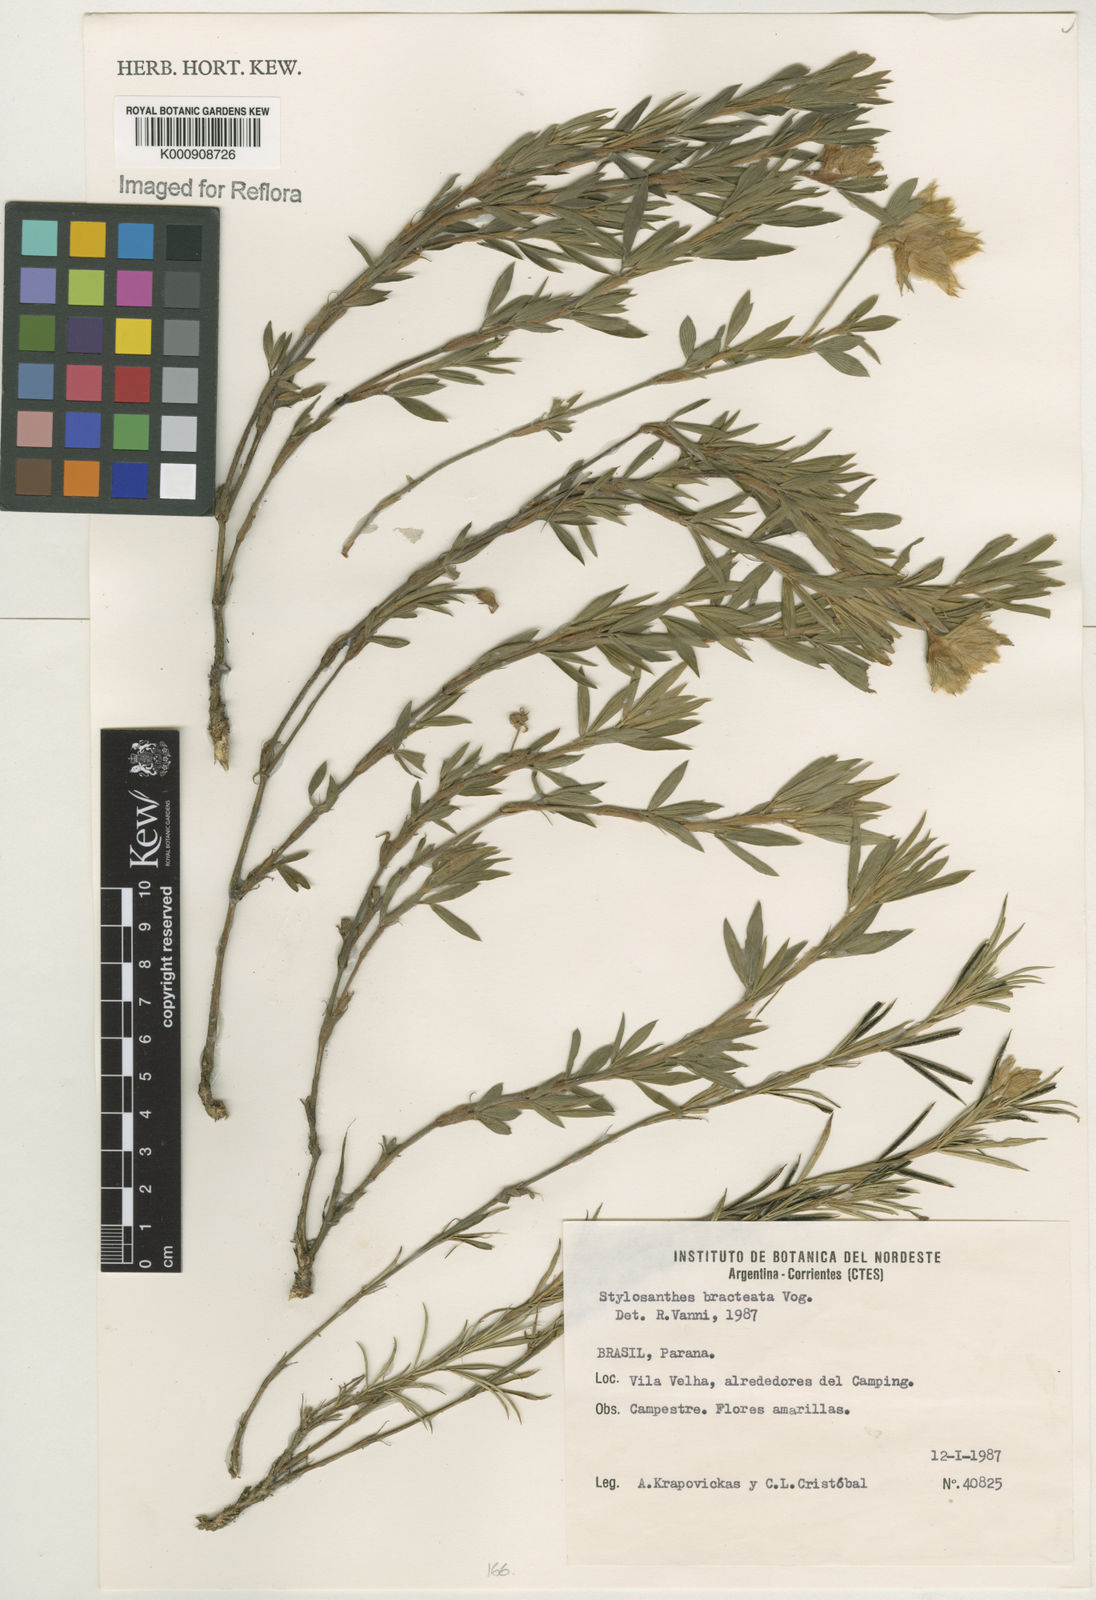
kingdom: Plantae
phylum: Tracheophyta
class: Magnoliopsida
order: Fabales
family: Fabaceae
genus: Stylosanthes
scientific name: Stylosanthes bracteata
